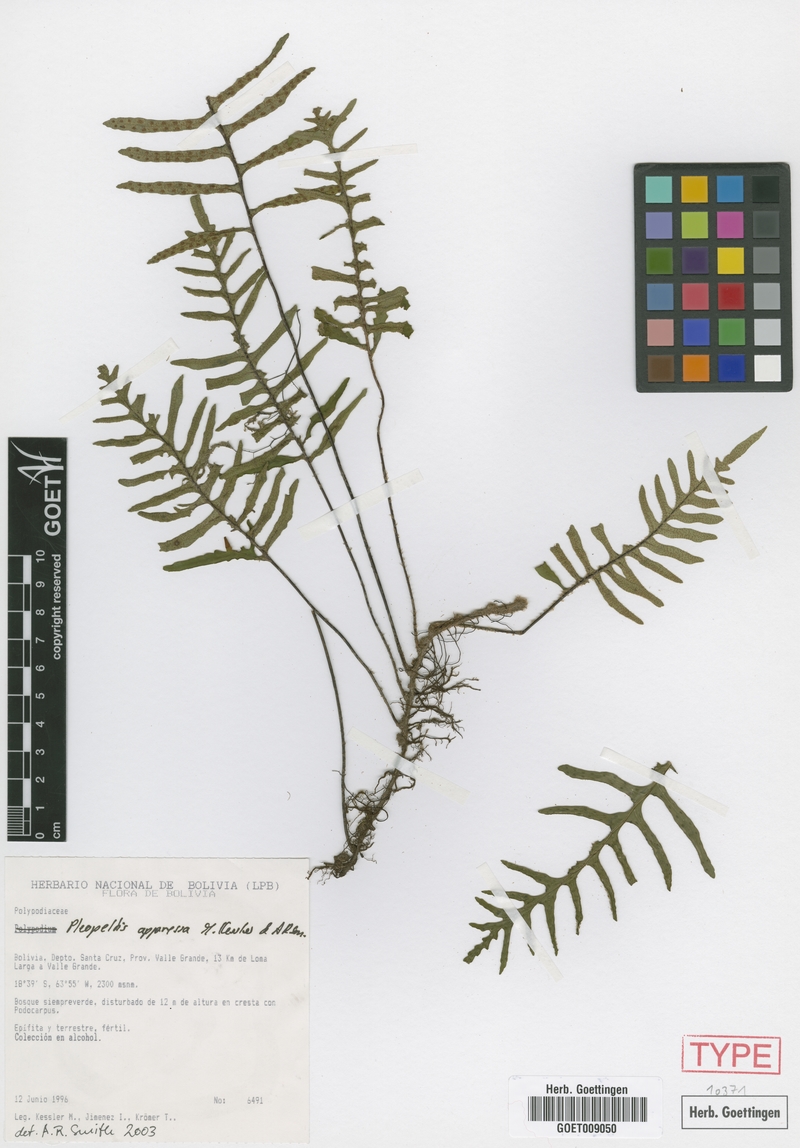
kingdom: Plantae
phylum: Tracheophyta
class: Polypodiopsida
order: Polypodiales
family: Polypodiaceae
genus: Pleopeltis
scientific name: Pleopeltis appressa
